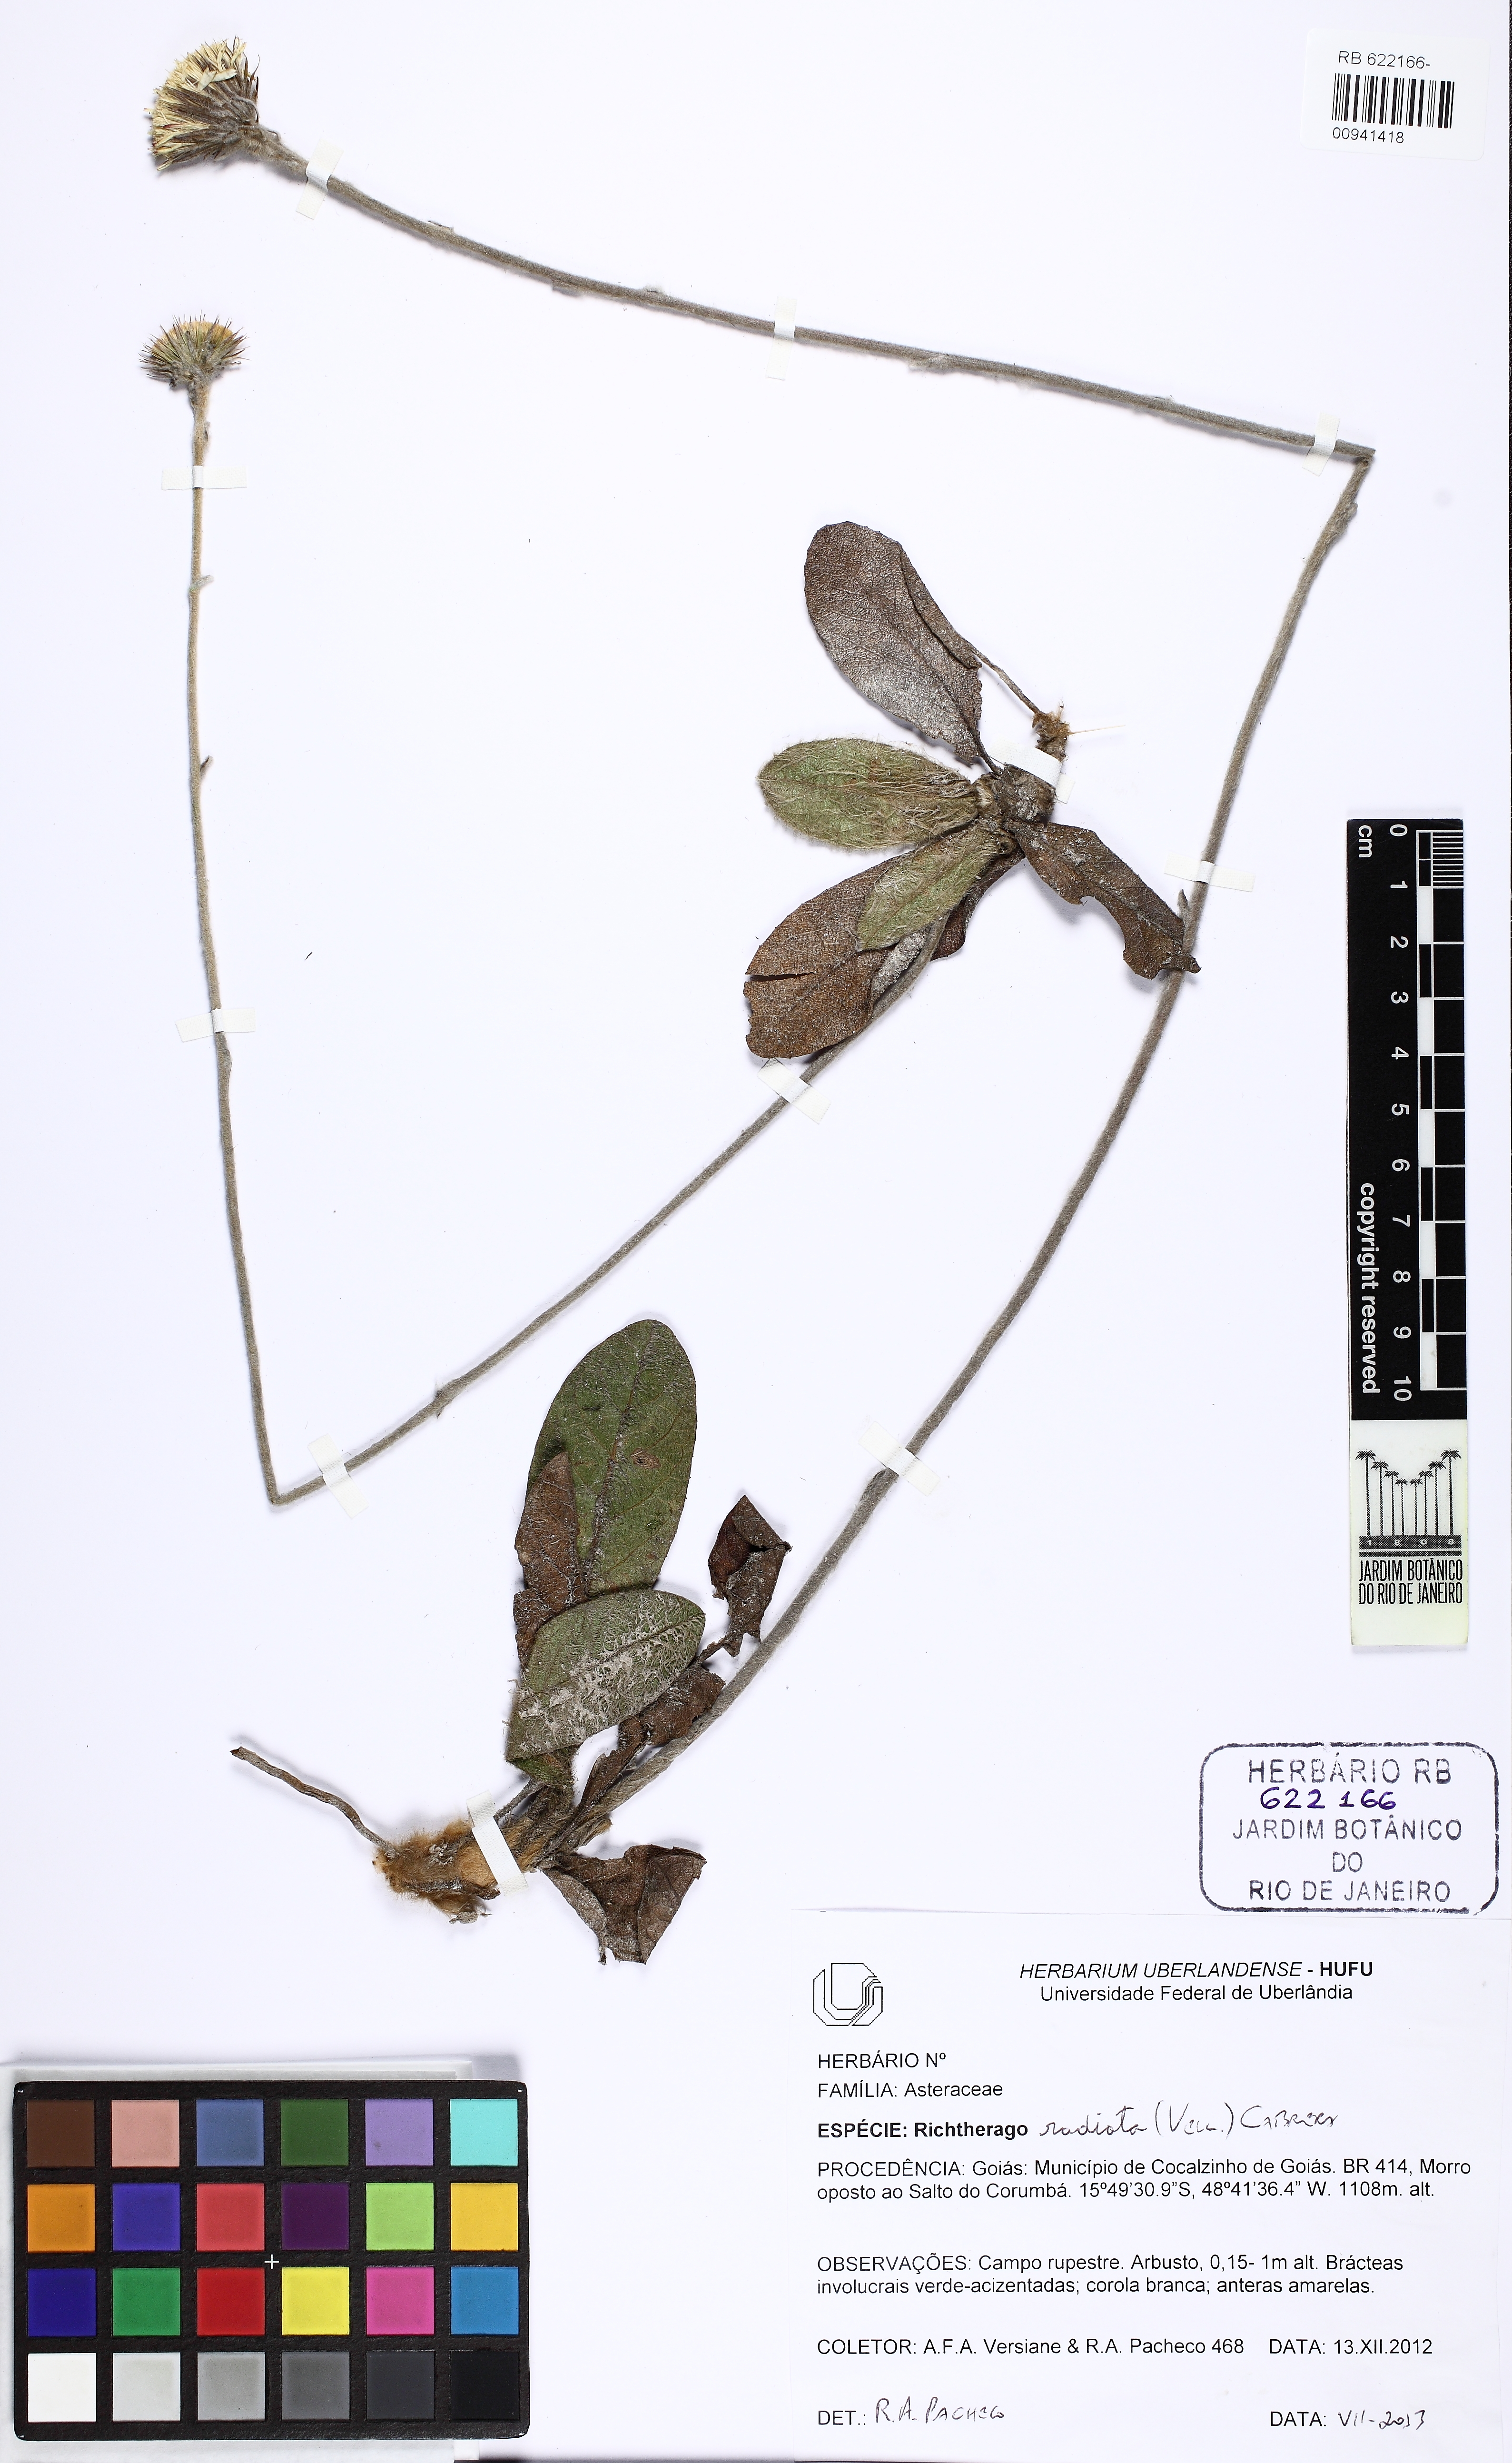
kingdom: Plantae
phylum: Tracheophyta
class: Magnoliopsida
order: Asterales
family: Asteraceae
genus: Richterago
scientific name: Richterago radiata
